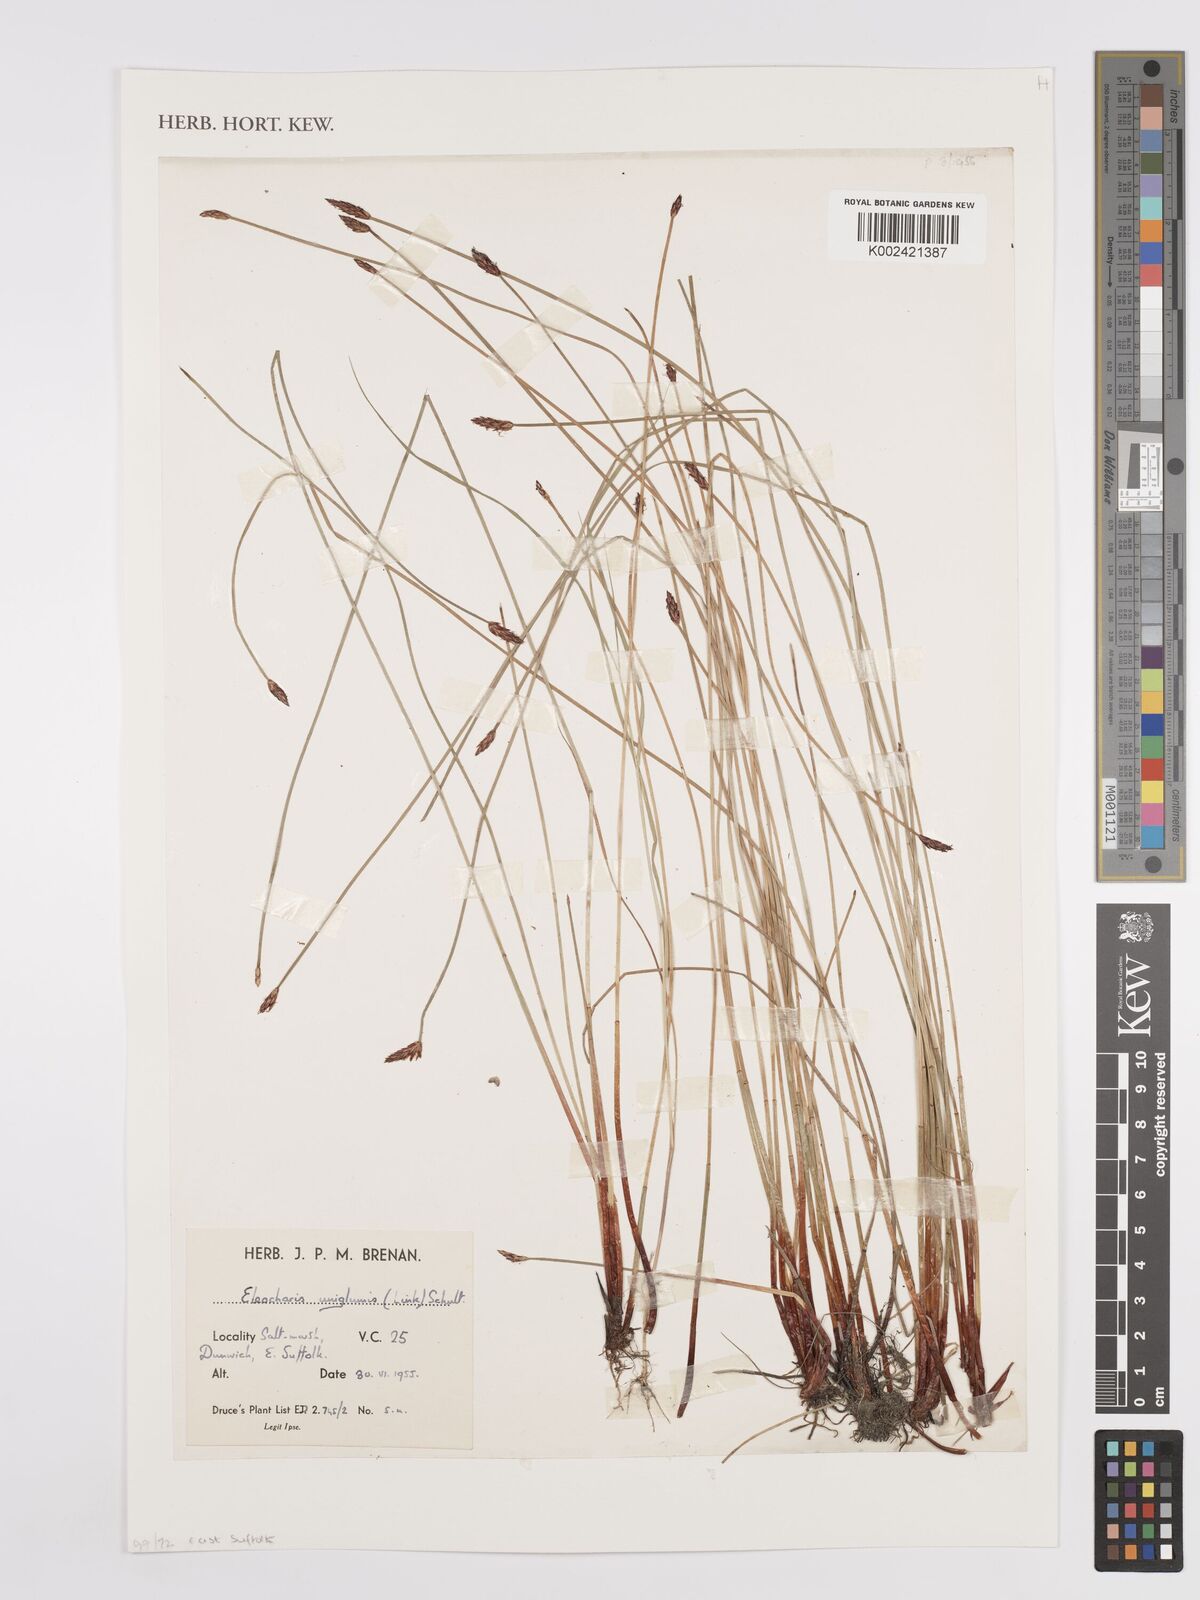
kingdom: Plantae
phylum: Tracheophyta
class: Liliopsida
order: Poales
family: Cyperaceae
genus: Eleocharis
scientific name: Eleocharis uniglumis
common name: Slender spike-rush
